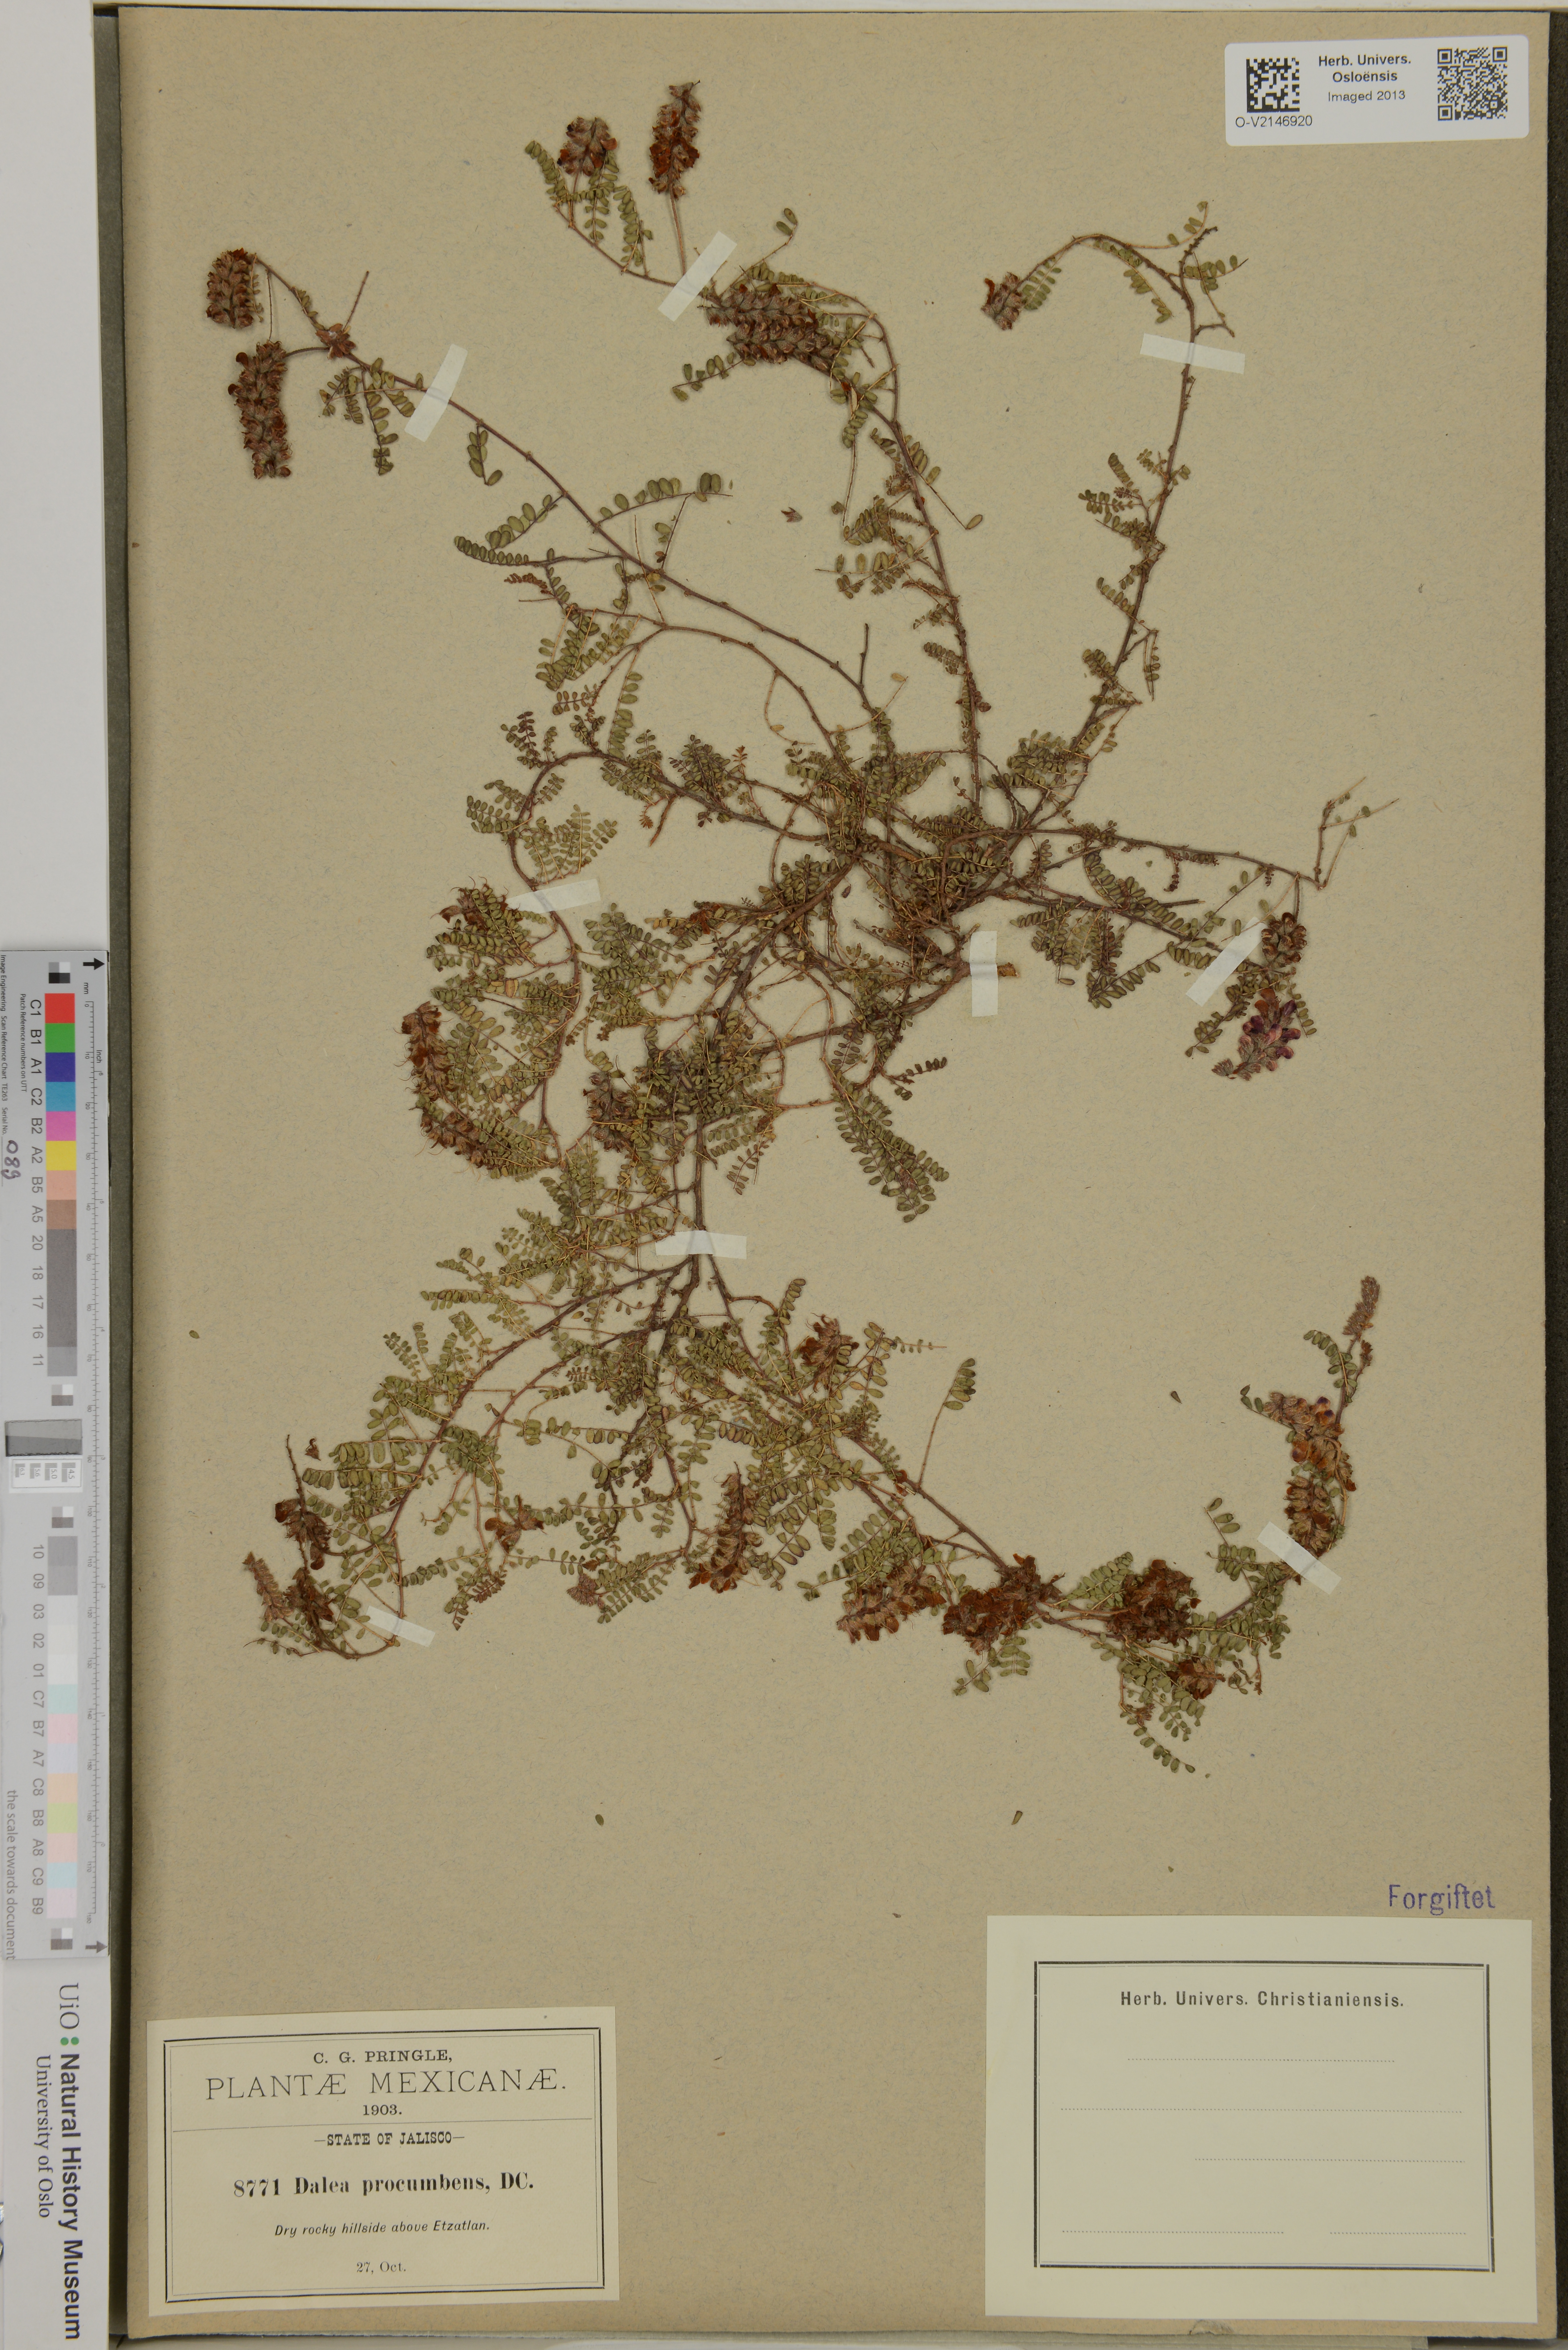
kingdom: Plantae
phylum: Tracheophyta
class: Magnoliopsida
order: Fabales
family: Fabaceae
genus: Marina
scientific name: Marina procumbens
